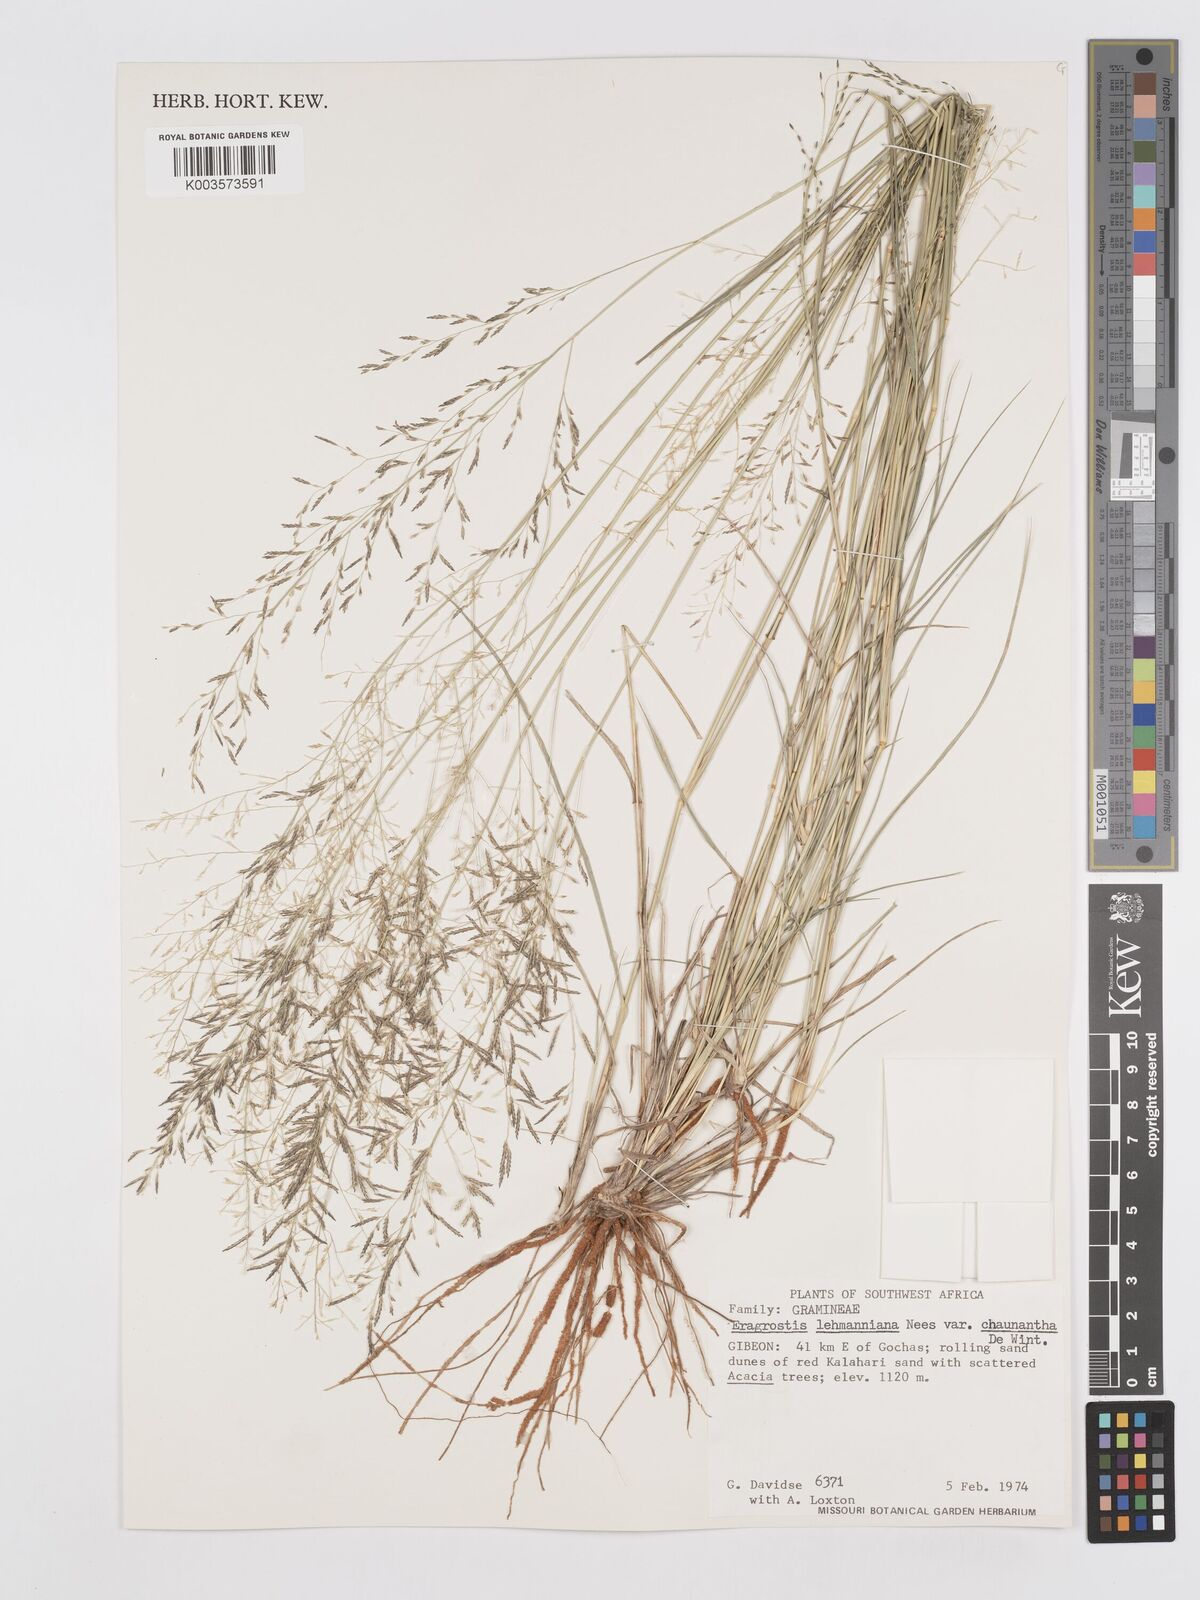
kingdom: Plantae
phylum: Tracheophyta
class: Liliopsida
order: Poales
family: Poaceae
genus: Eragrostis
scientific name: Eragrostis lehmanniana
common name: Lehmann lovegrass
